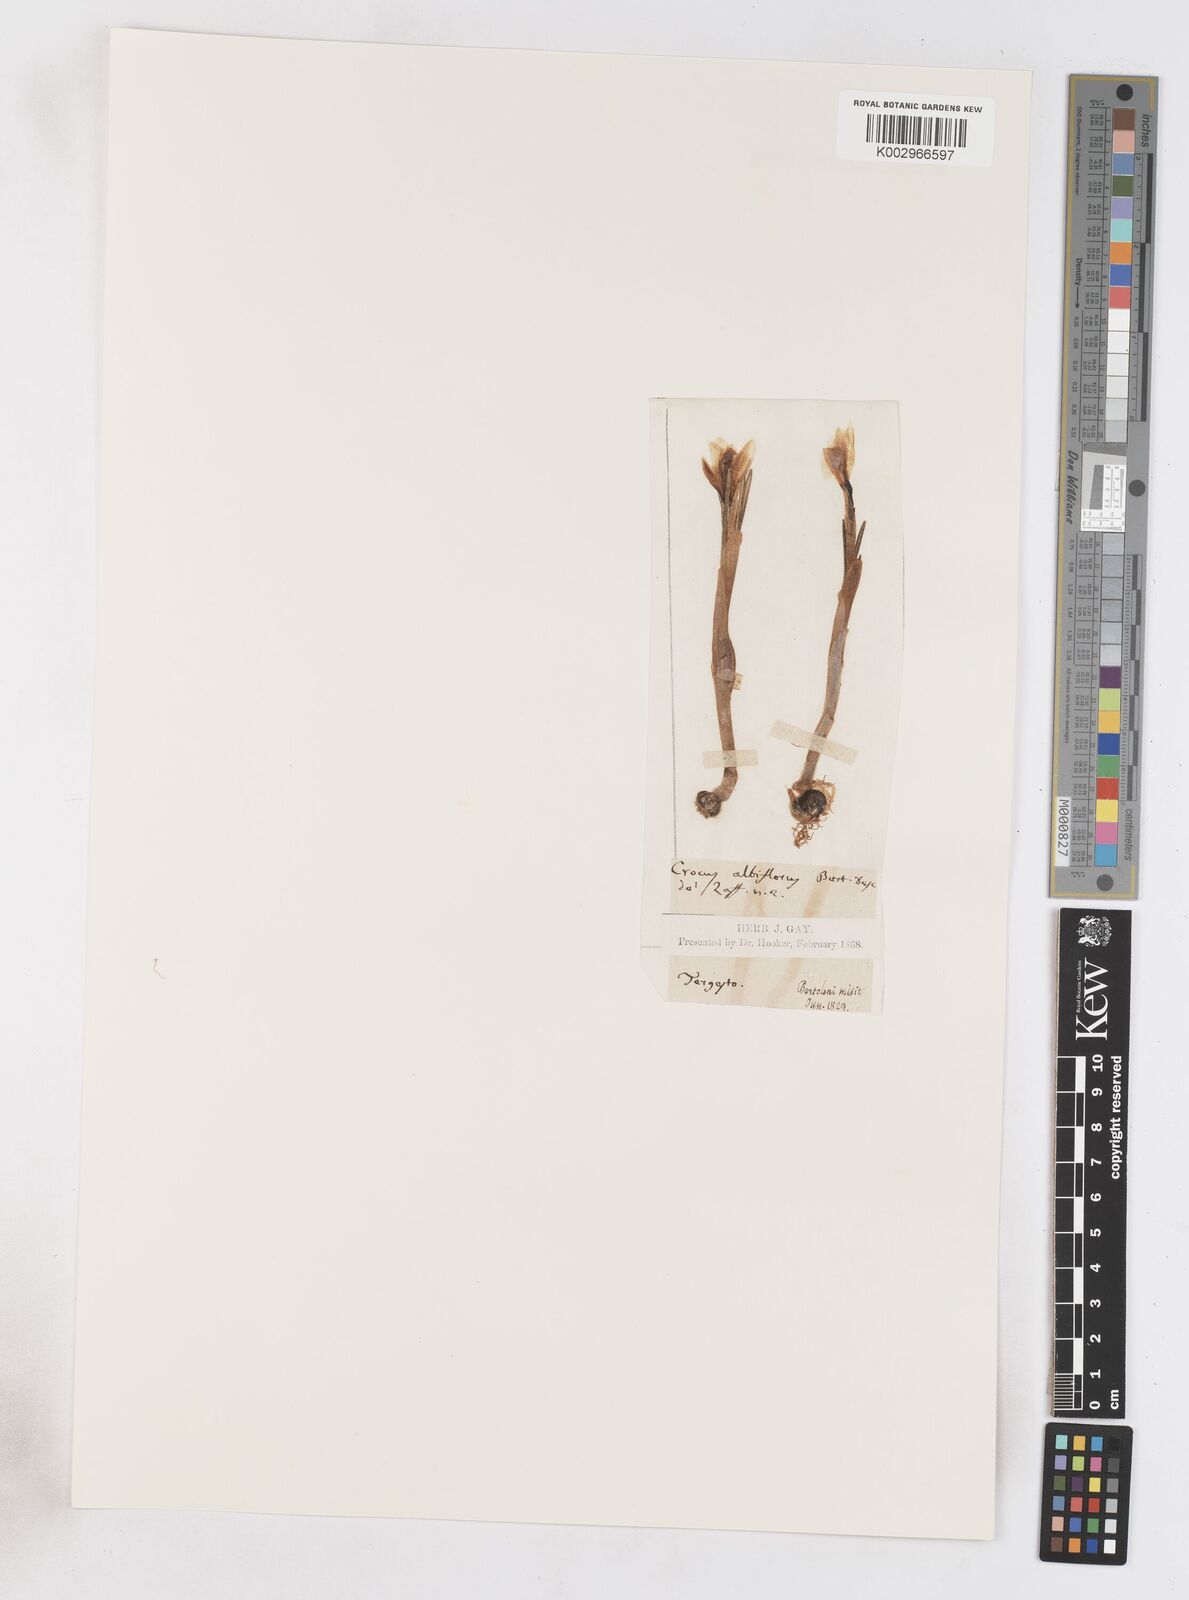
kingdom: Plantae
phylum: Tracheophyta
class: Liliopsida
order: Asparagales
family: Iridaceae
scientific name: Iridaceae
